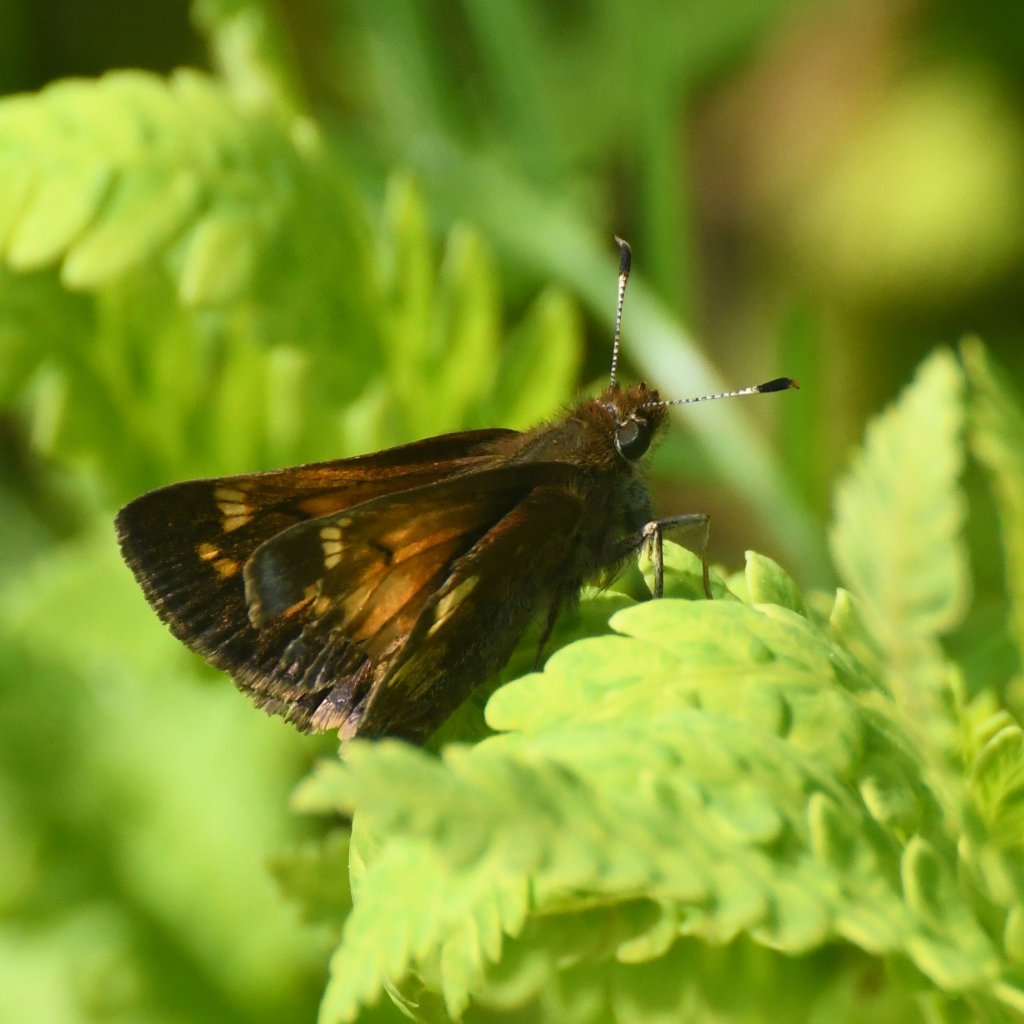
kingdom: Animalia
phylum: Arthropoda
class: Insecta
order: Lepidoptera
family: Hesperiidae
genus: Lon
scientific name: Lon hobomok
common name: Hobomok Skipper
